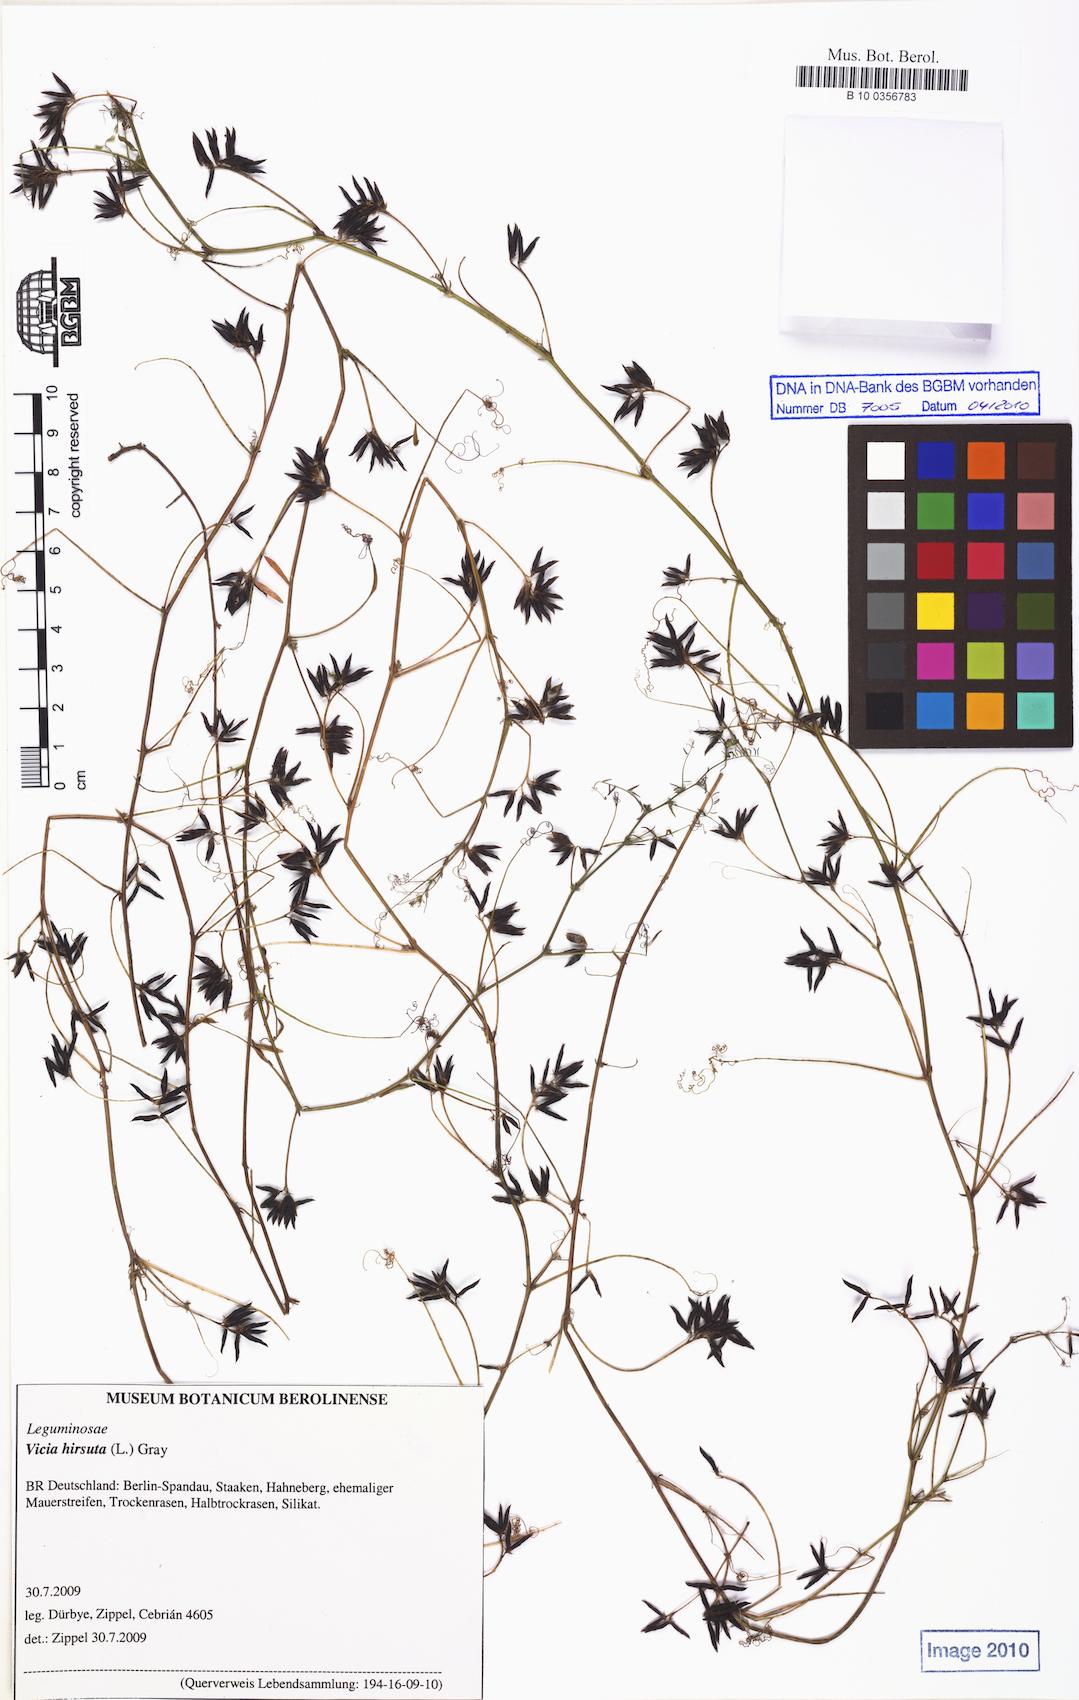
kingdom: Plantae
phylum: Tracheophyta
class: Magnoliopsida
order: Fabales
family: Fabaceae
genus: Vicia
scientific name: Vicia hirsuta
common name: Tiny vetch
